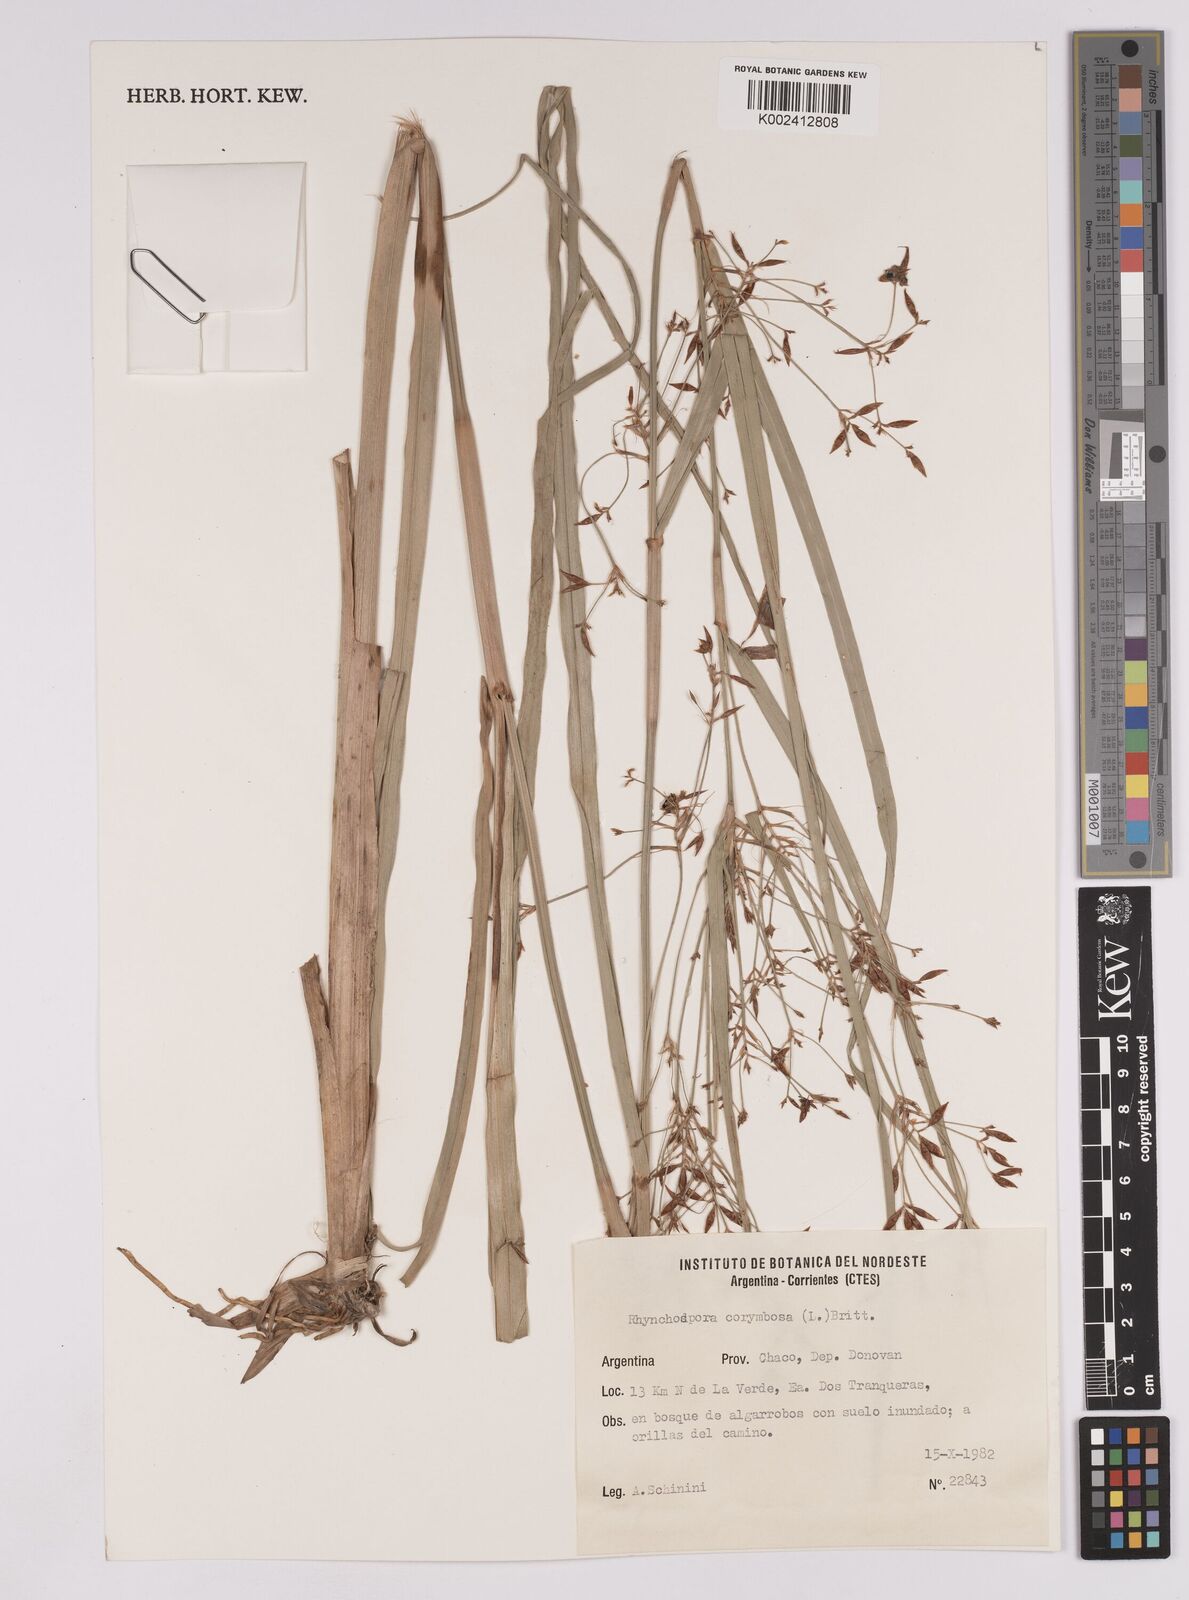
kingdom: Plantae
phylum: Tracheophyta
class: Liliopsida
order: Poales
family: Cyperaceae
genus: Rhynchospora
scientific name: Rhynchospora corymbosa
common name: Golden beak sedge
